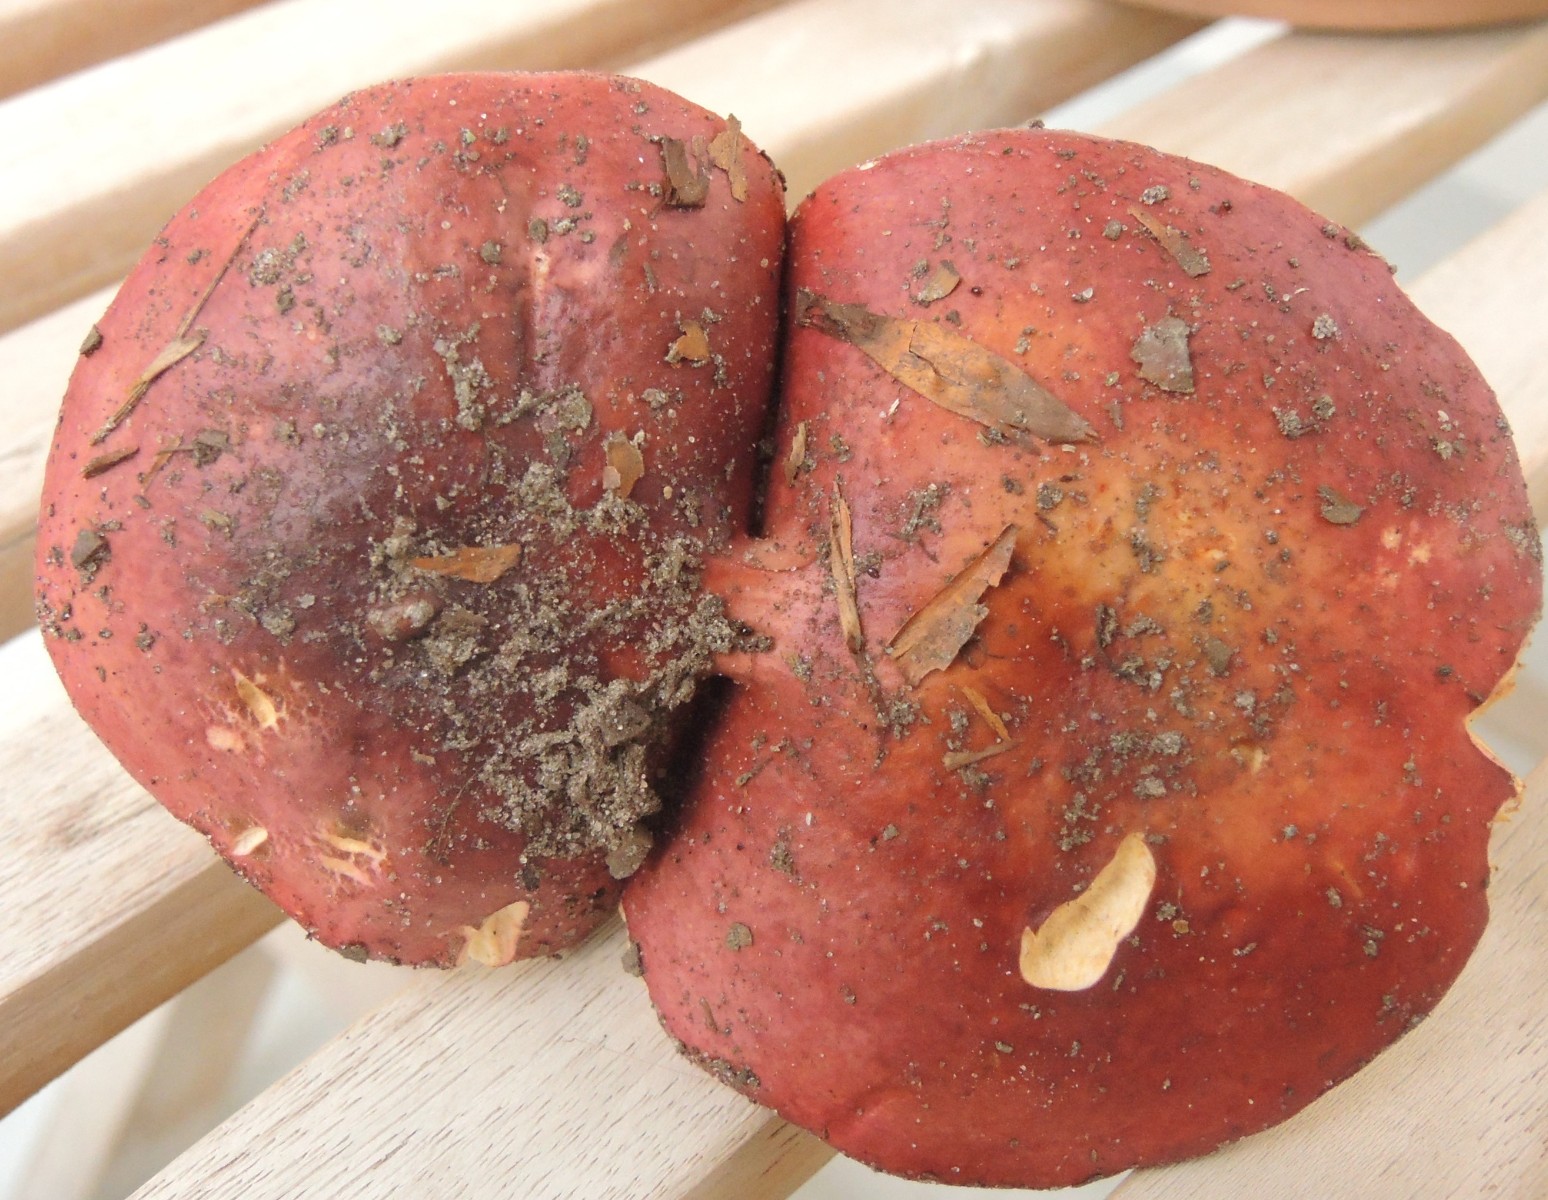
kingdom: Fungi
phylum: Basidiomycota
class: Agaricomycetes
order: Russulales
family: Russulaceae
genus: Russula
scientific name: Russula velenovskyi
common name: orangerød skørhat
